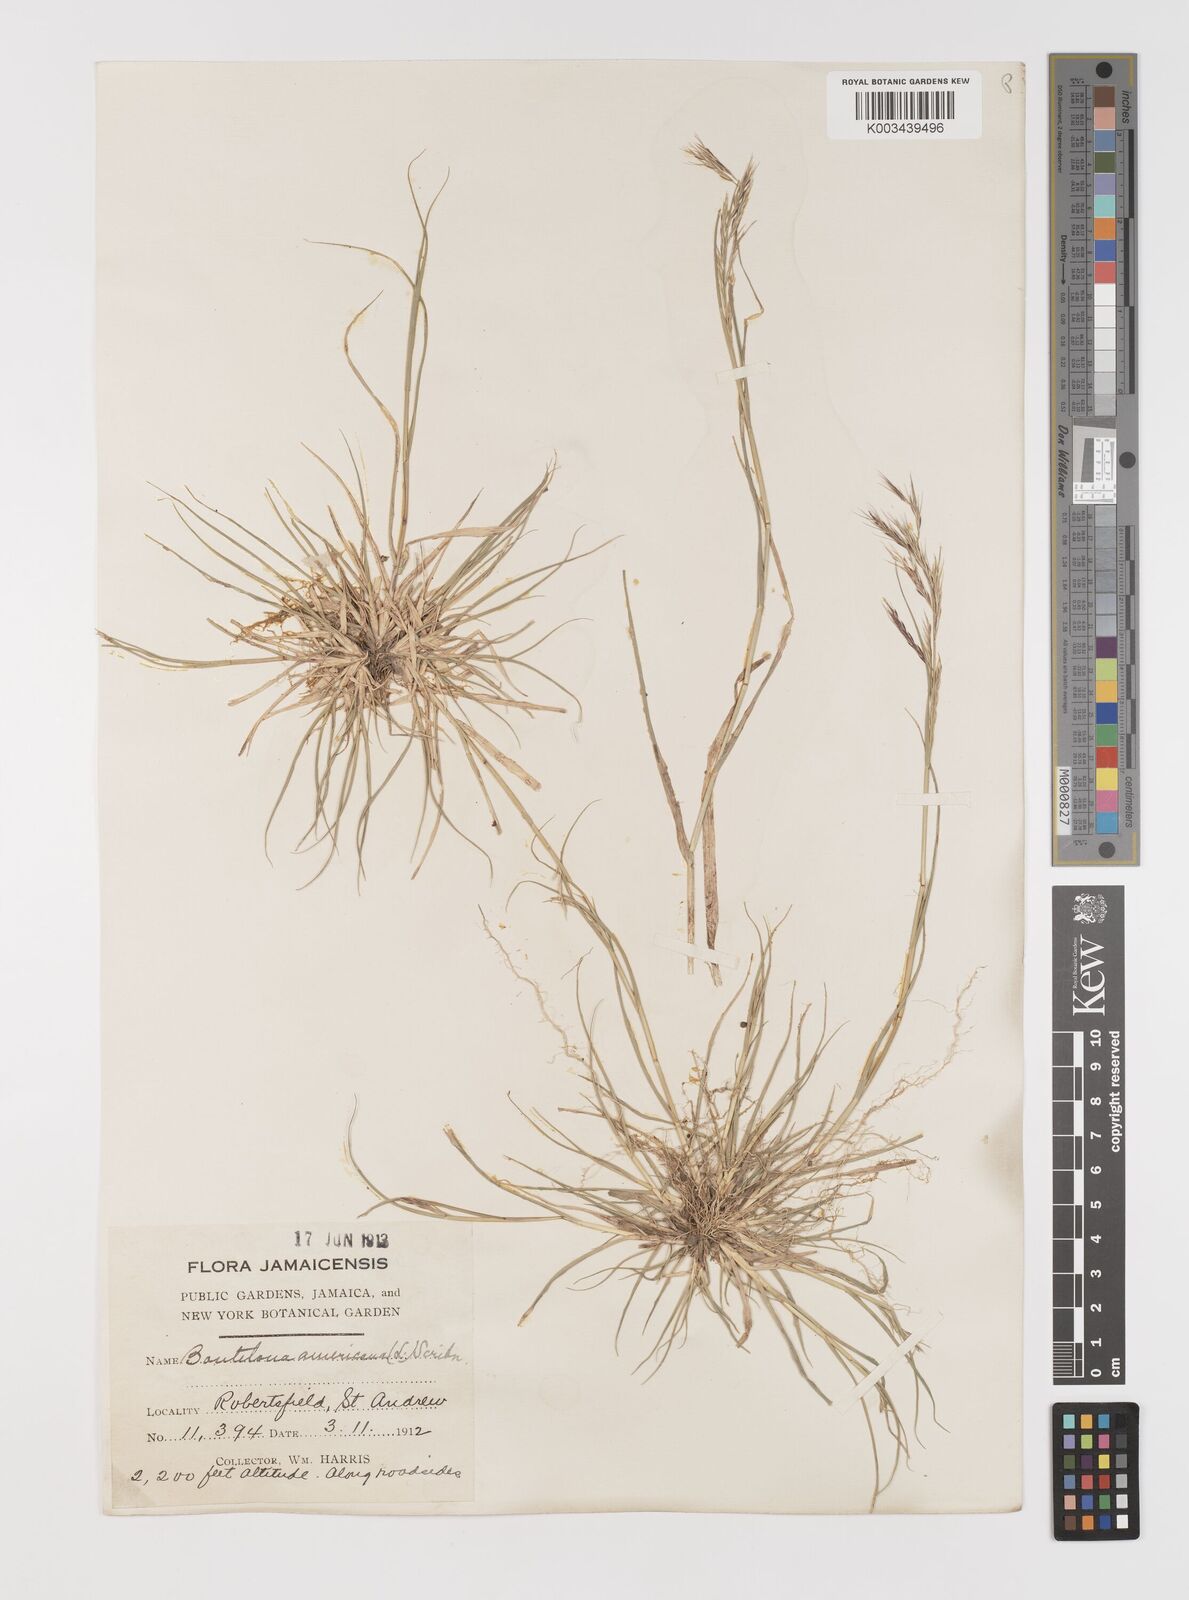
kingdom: Plantae
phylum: Tracheophyta
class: Liliopsida
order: Poales
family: Poaceae
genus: Bouteloua
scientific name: Bouteloua americana
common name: Mule grass
